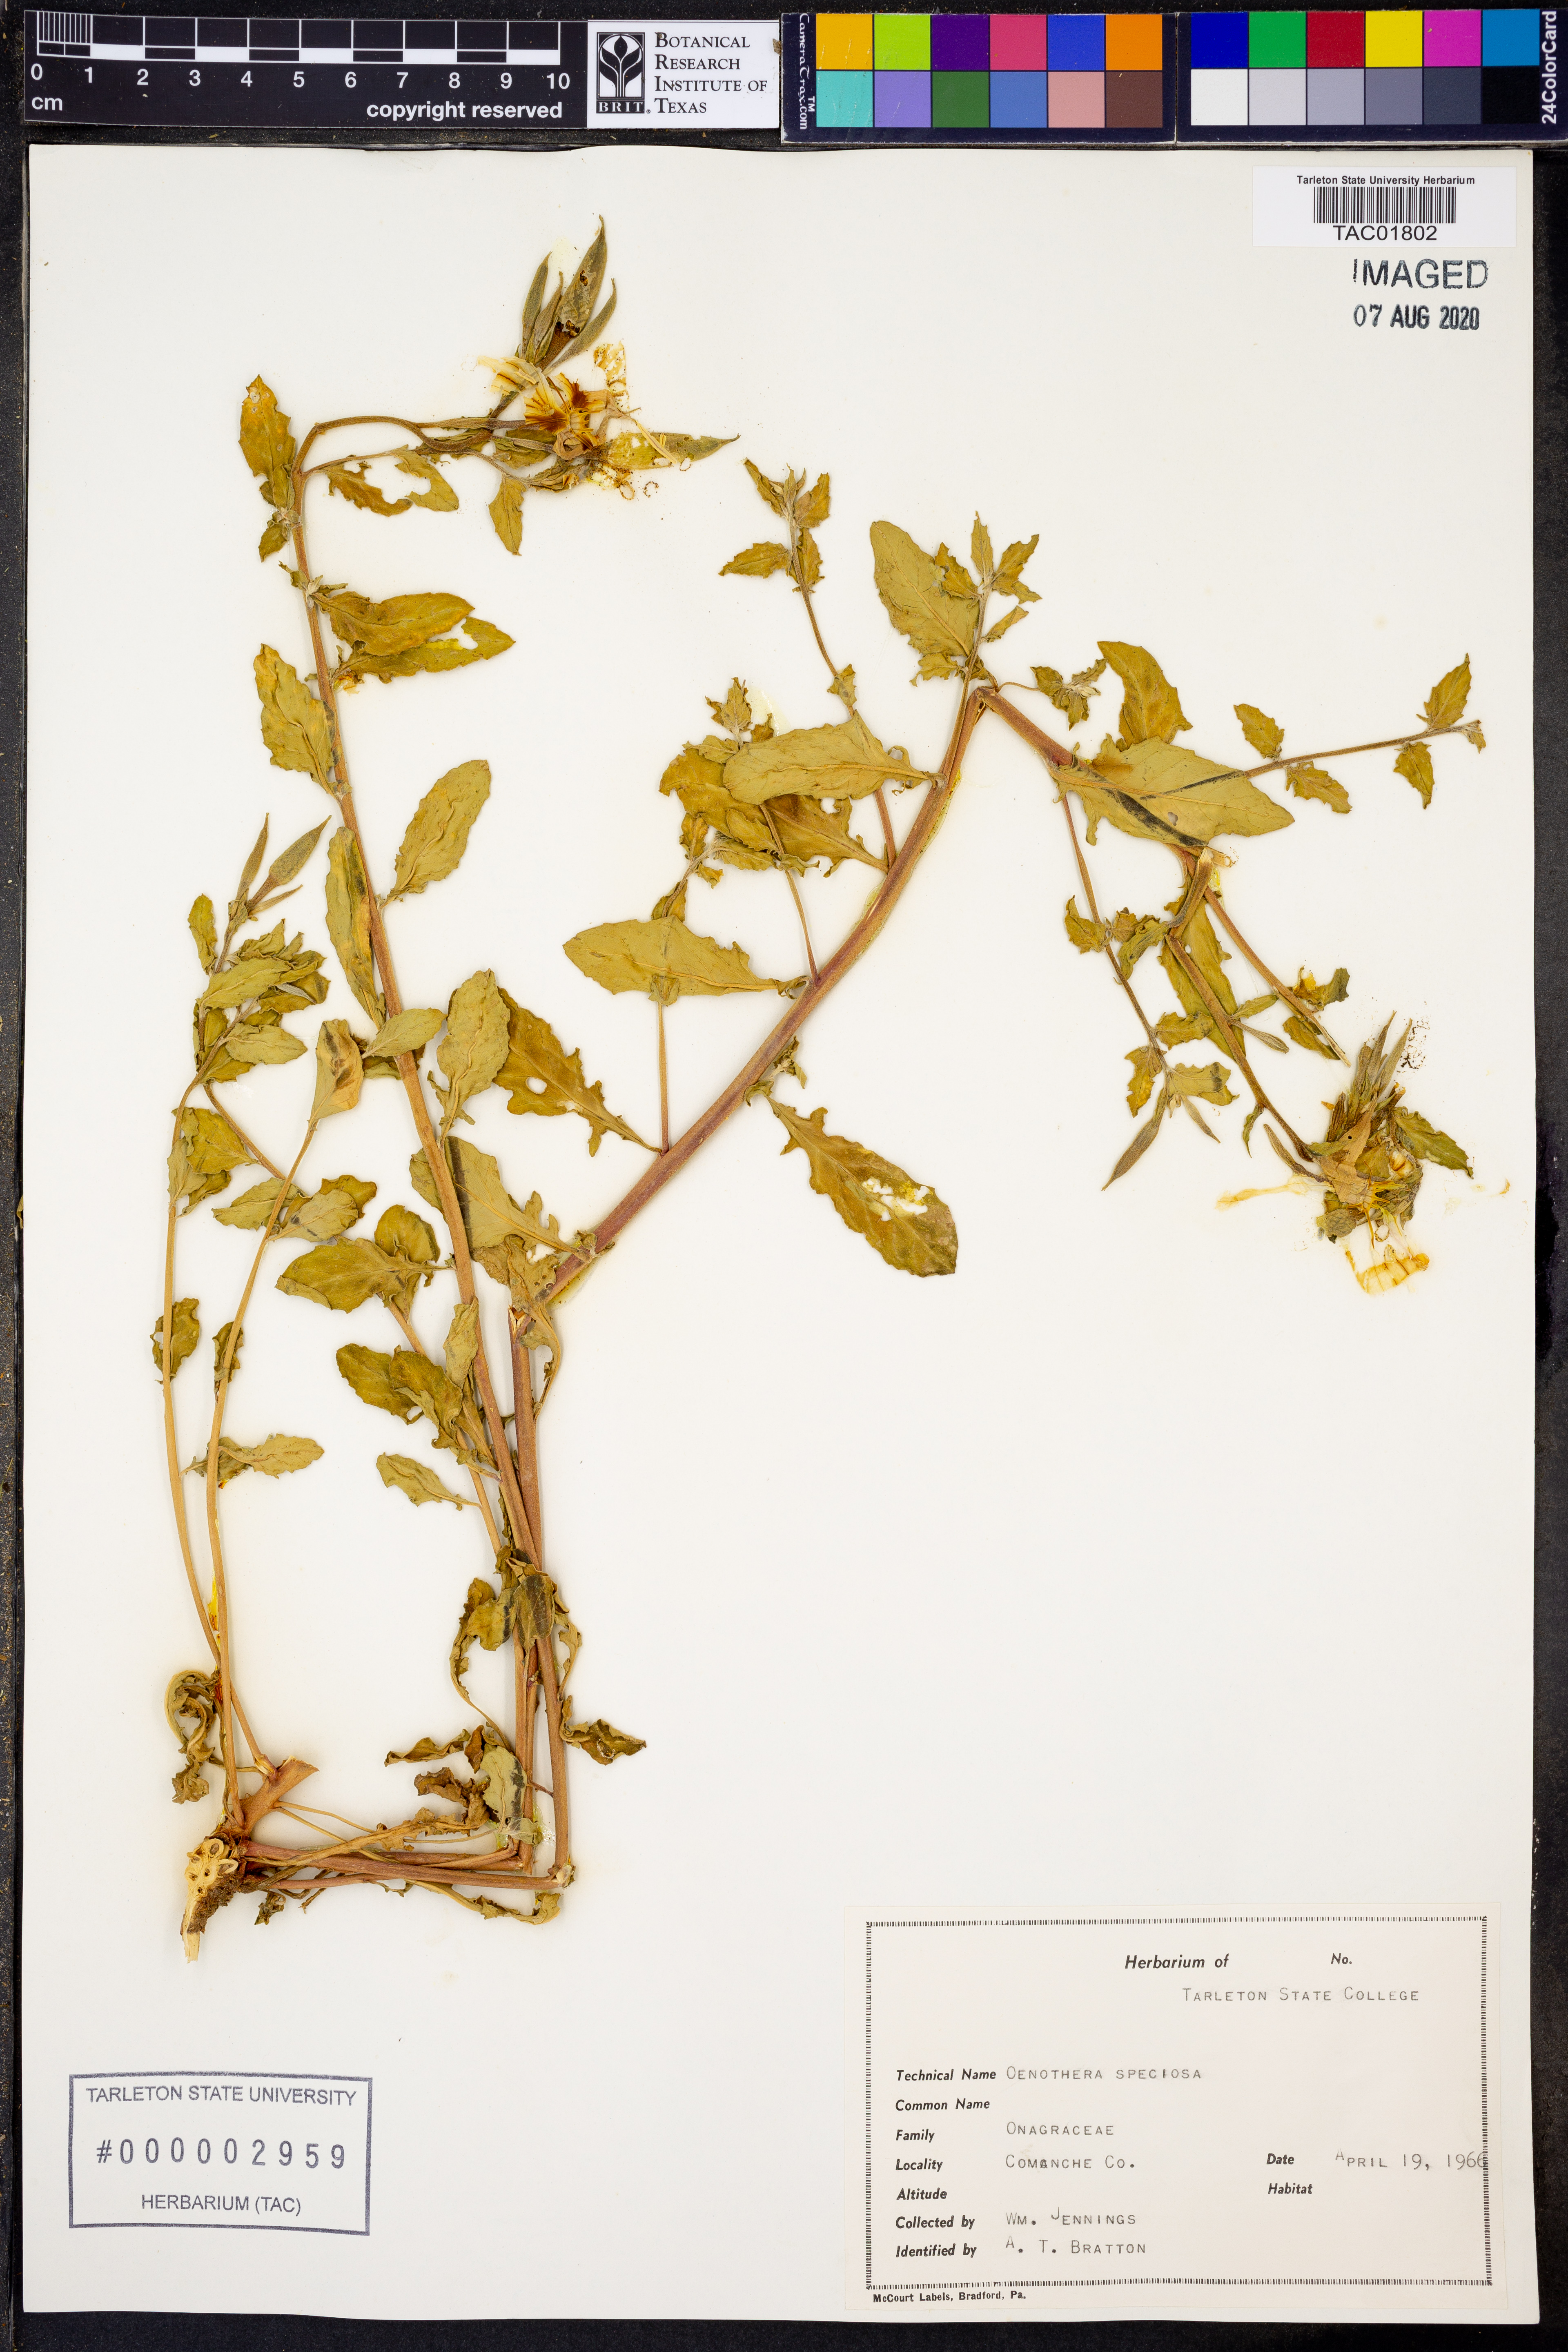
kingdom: Plantae
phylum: Tracheophyta
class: Magnoliopsida
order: Myrtales
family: Onagraceae
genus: Oenothera
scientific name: Oenothera speciosa
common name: White evening-primrose
